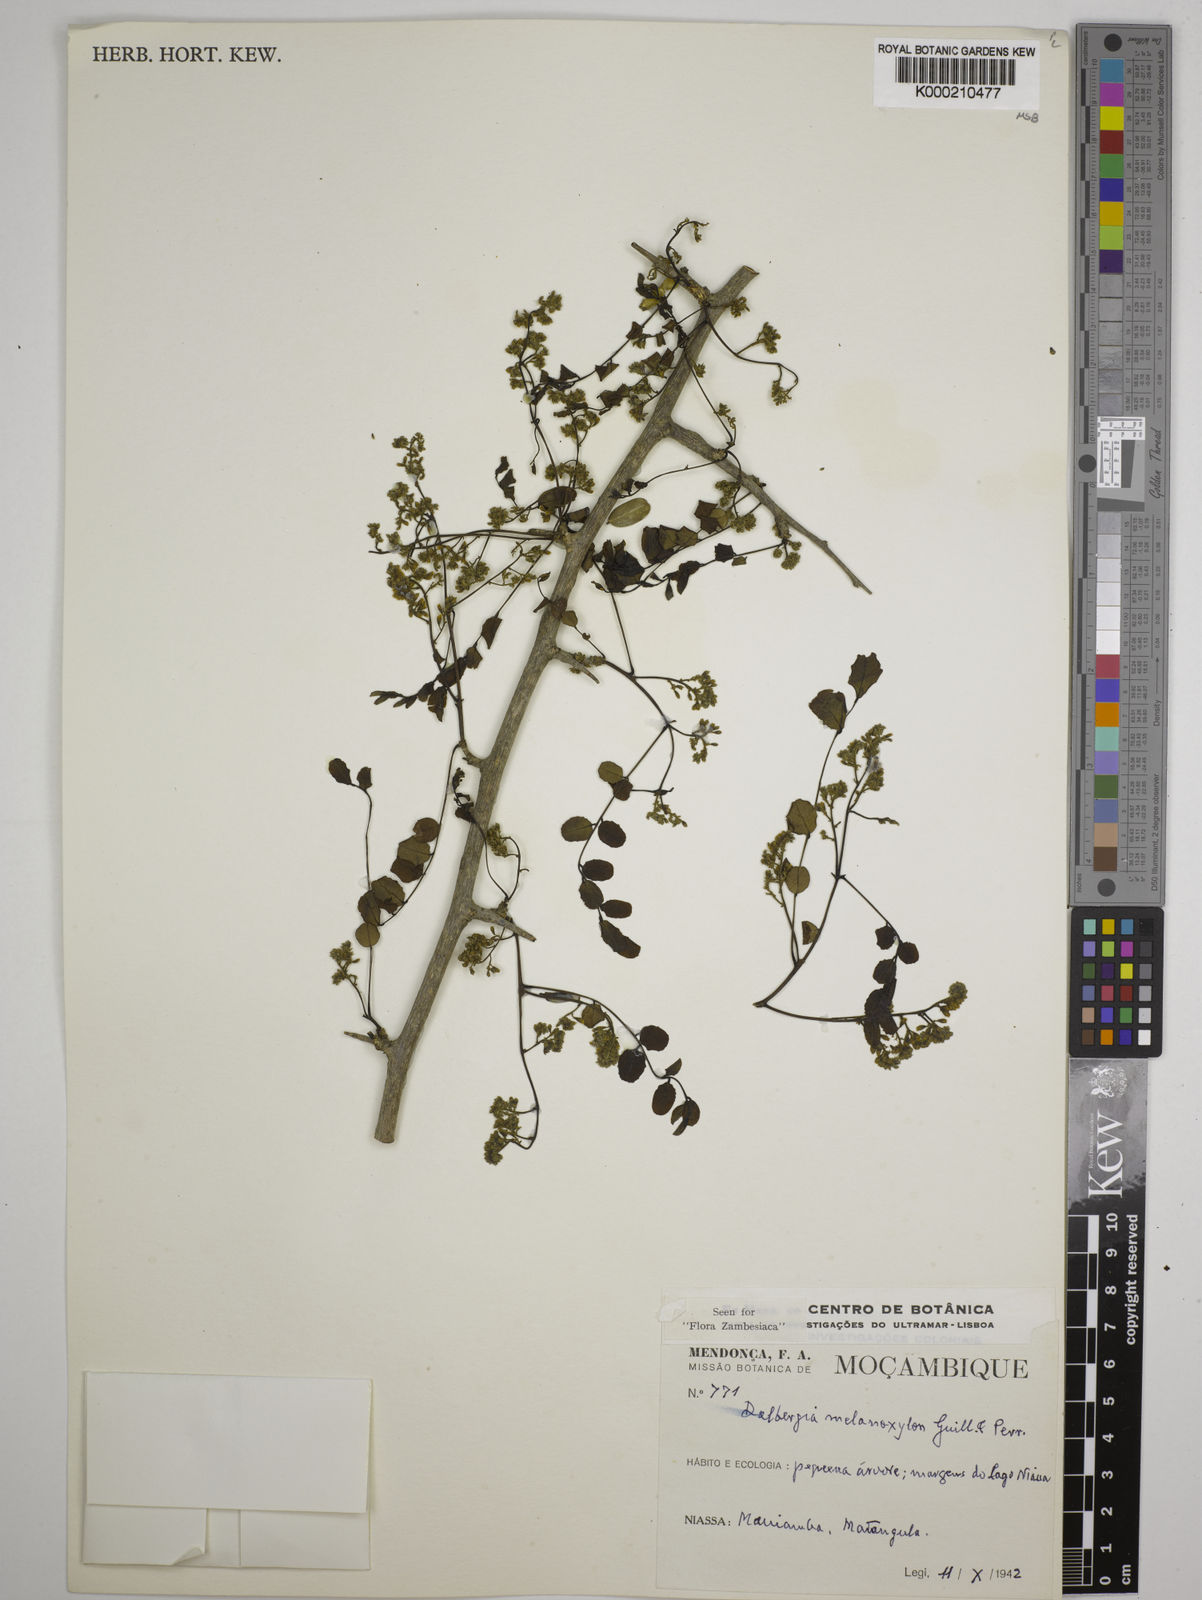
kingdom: Plantae
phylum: Tracheophyta
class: Magnoliopsida
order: Fabales
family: Fabaceae
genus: Dalbergia
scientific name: Dalbergia melanoxylon
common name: African blackwood
